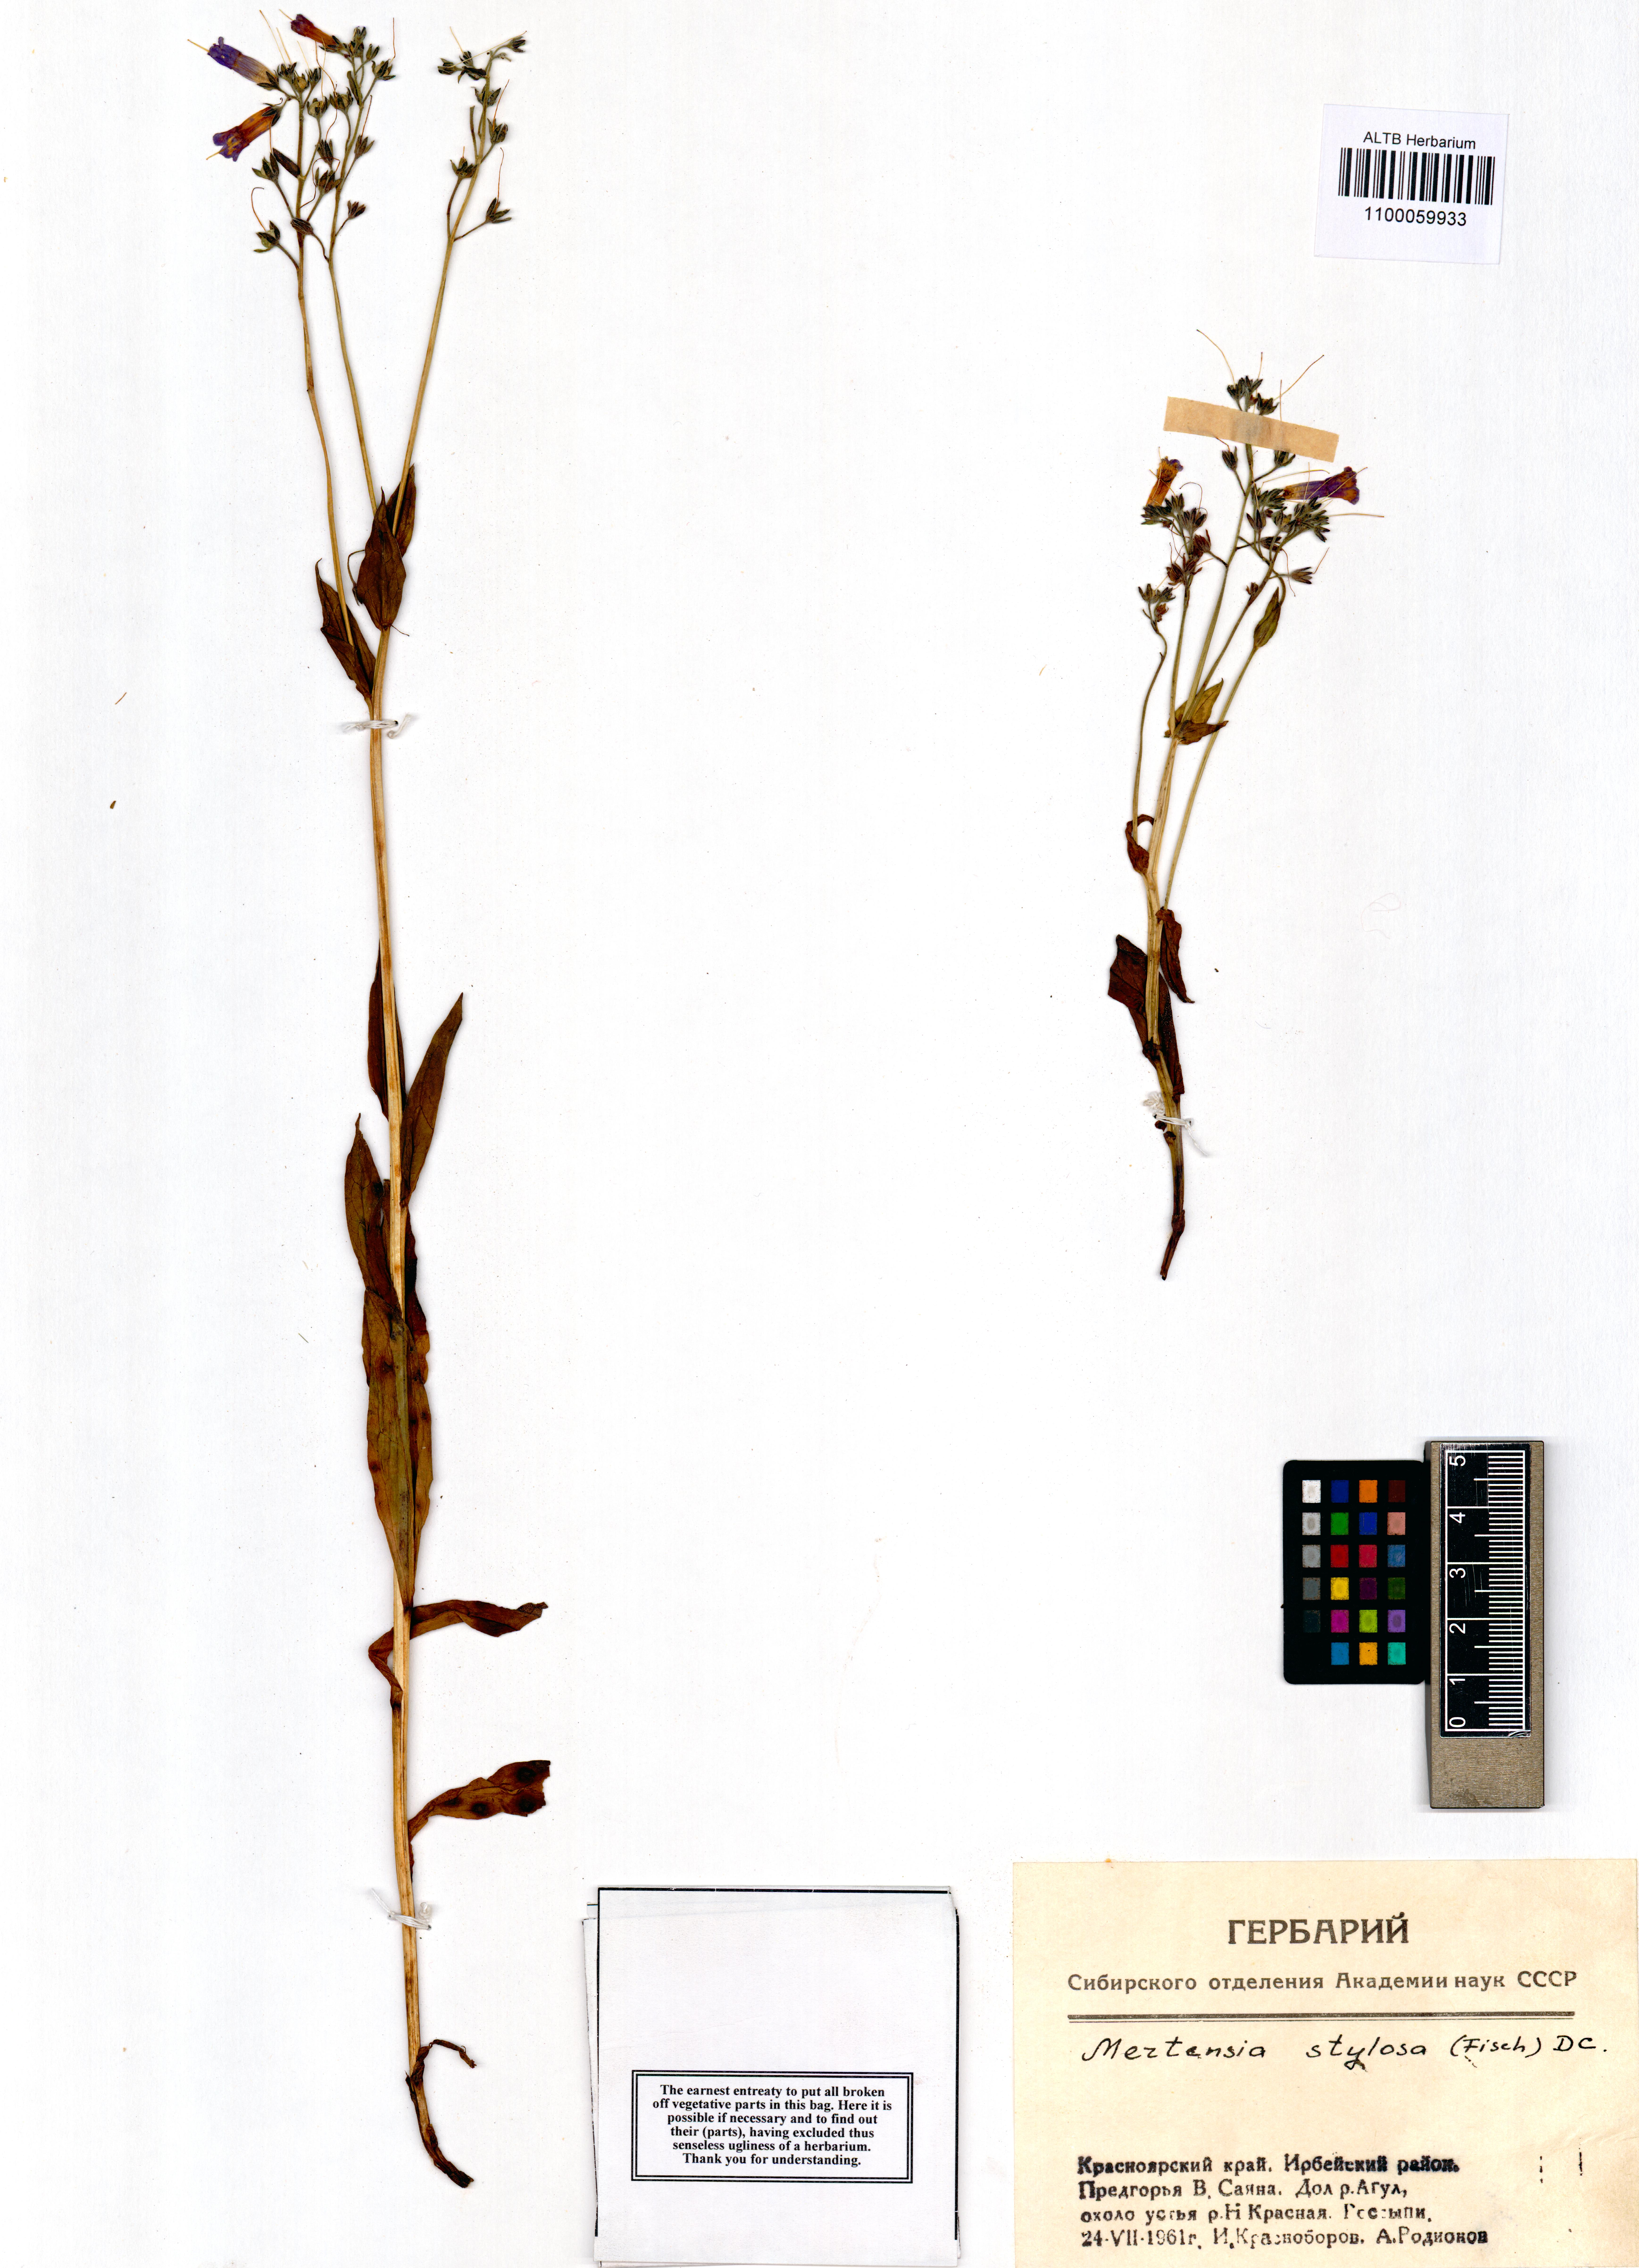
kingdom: Plantae
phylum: Tracheophyta
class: Magnoliopsida
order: Boraginales
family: Boraginaceae
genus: Mertensia
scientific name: Mertensia stylosa
